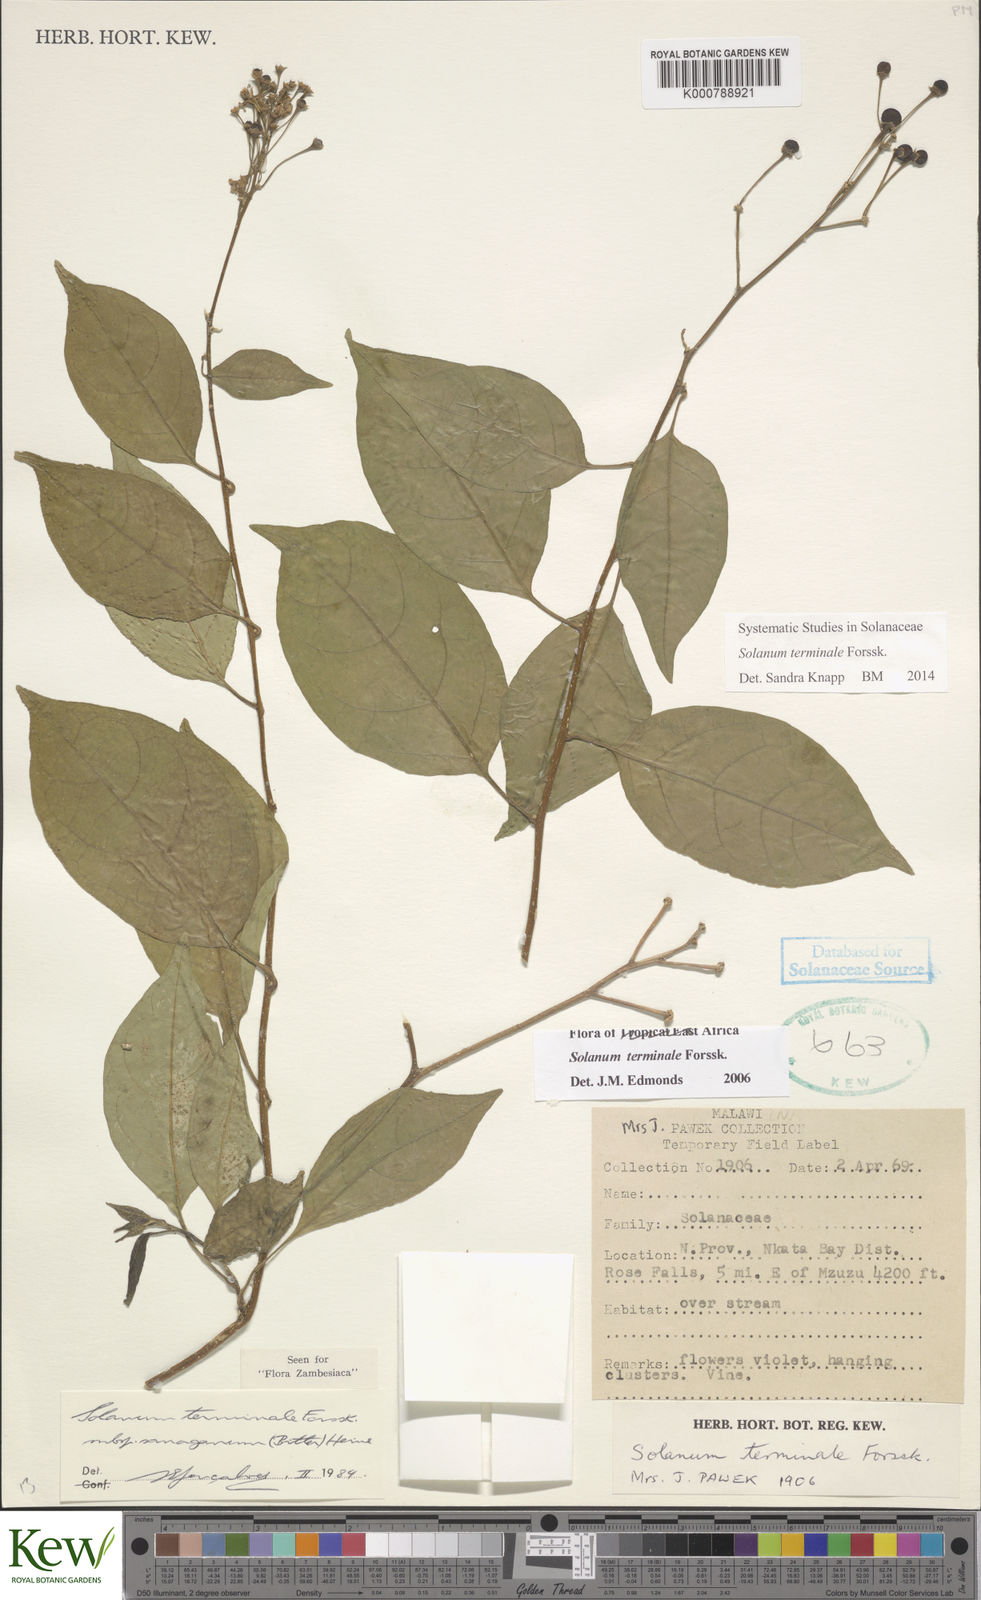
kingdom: Plantae
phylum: Tracheophyta
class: Magnoliopsida
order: Solanales
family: Solanaceae
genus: Solanum
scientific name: Solanum terminale
